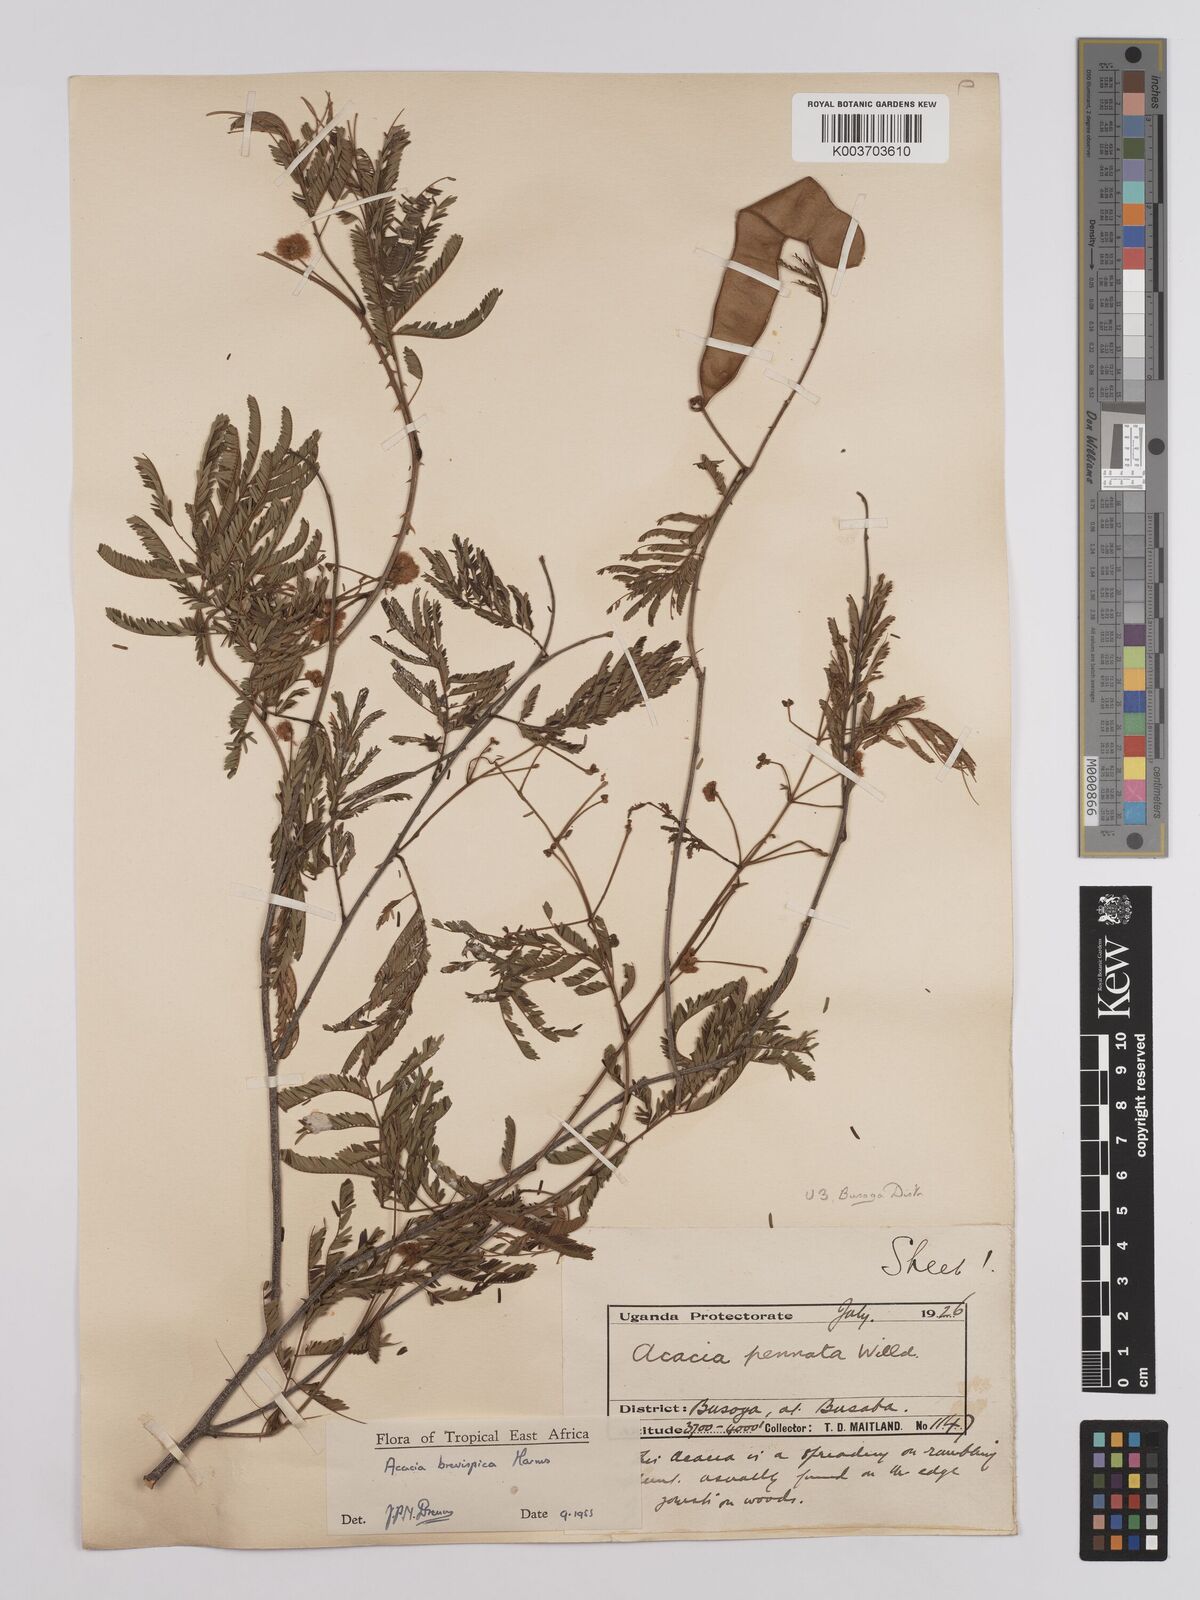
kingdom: Plantae
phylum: Tracheophyta
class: Magnoliopsida
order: Fabales
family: Fabaceae
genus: Senegalia
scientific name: Senegalia brevispica
